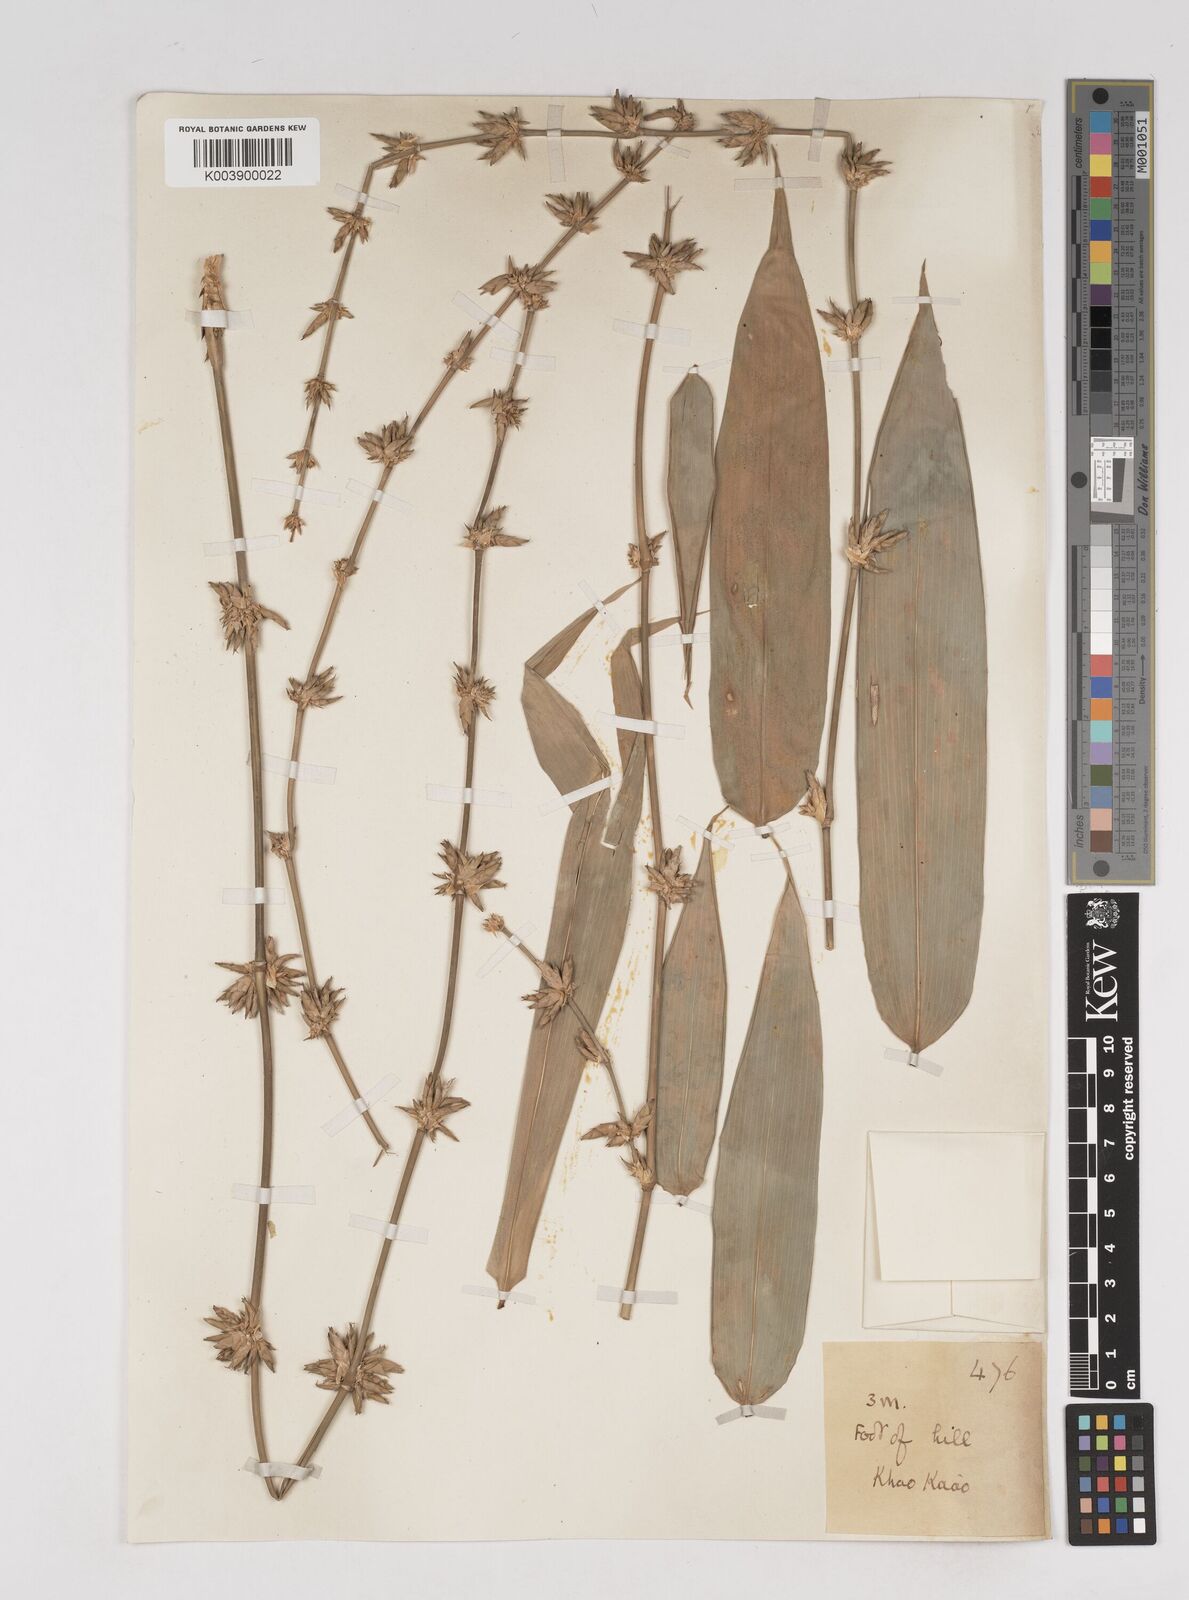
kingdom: Plantae
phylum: Tracheophyta
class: Liliopsida
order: Poales
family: Poaceae
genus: Gigantochloa
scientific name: Gigantochloa
